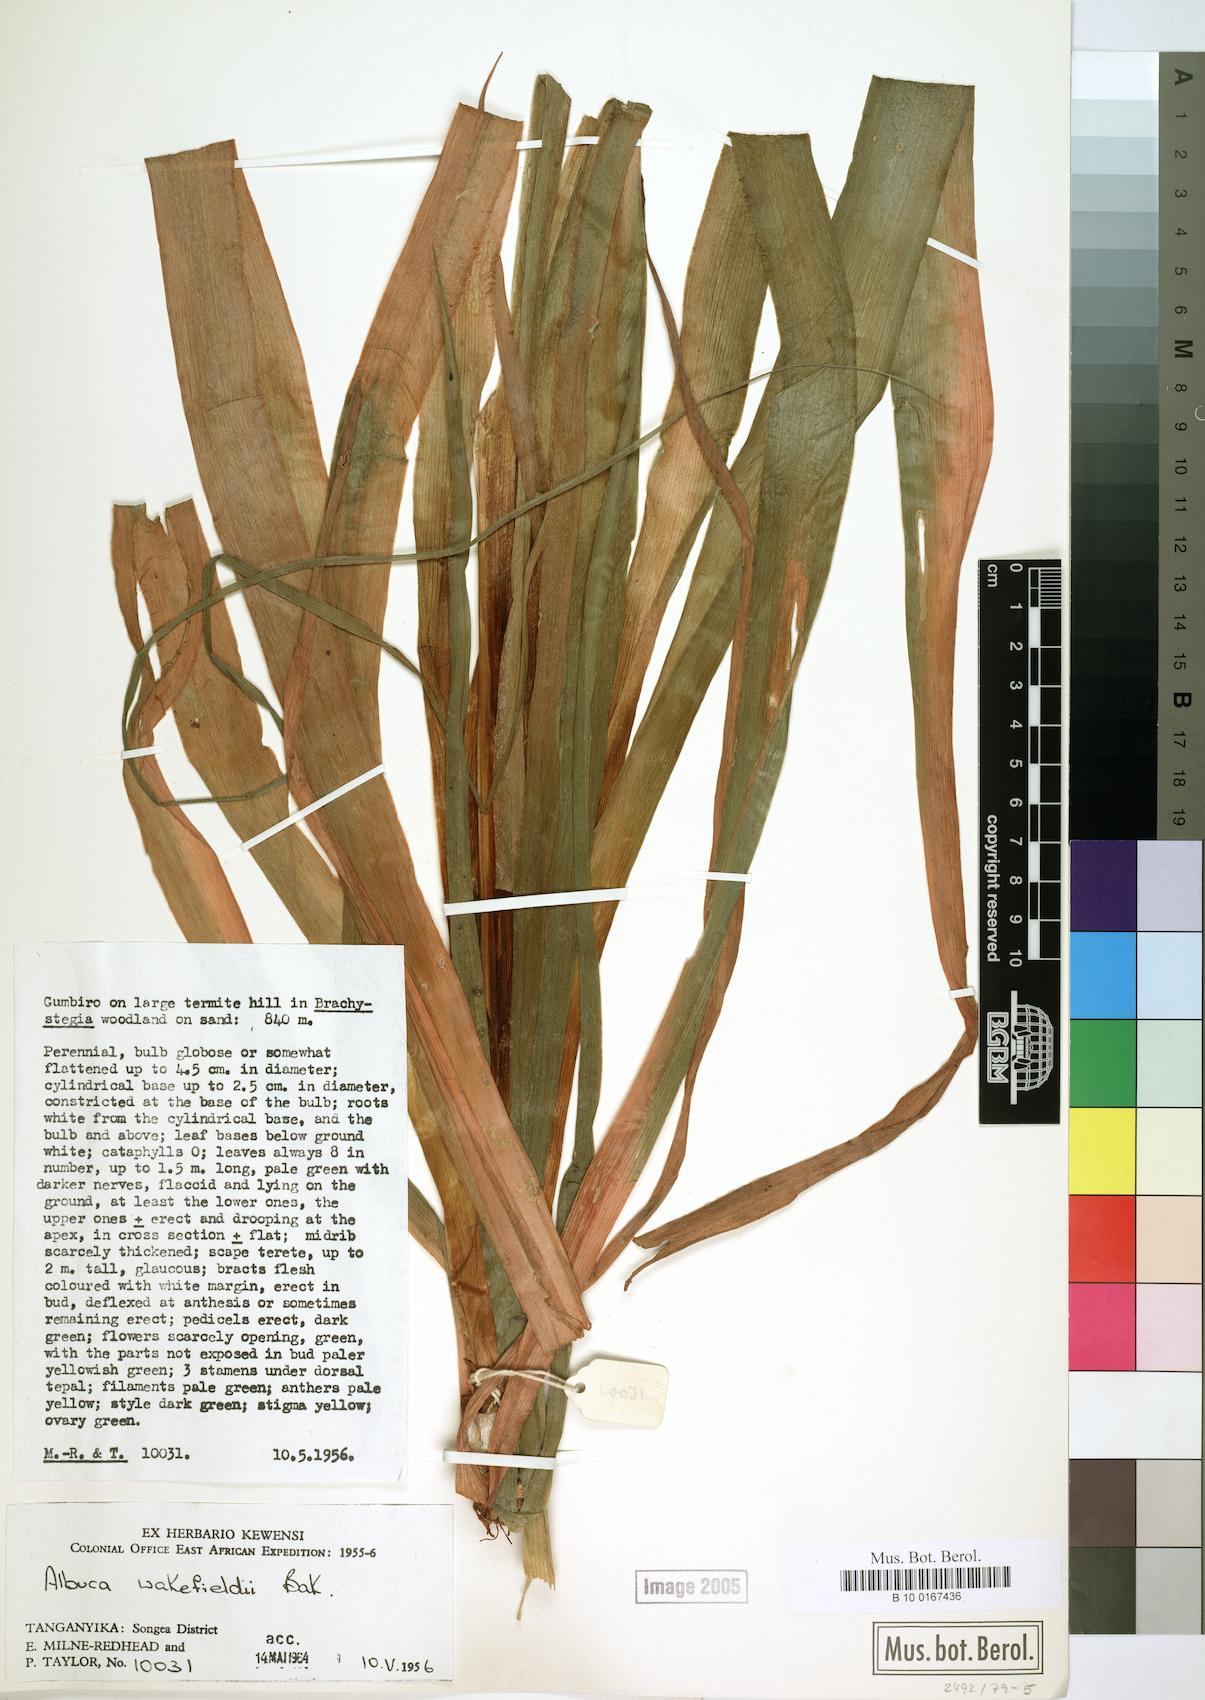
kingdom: Plantae
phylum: Tracheophyta
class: Liliopsida
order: Asparagales
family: Asparagaceae
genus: Albuca
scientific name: Albuca abyssinica
